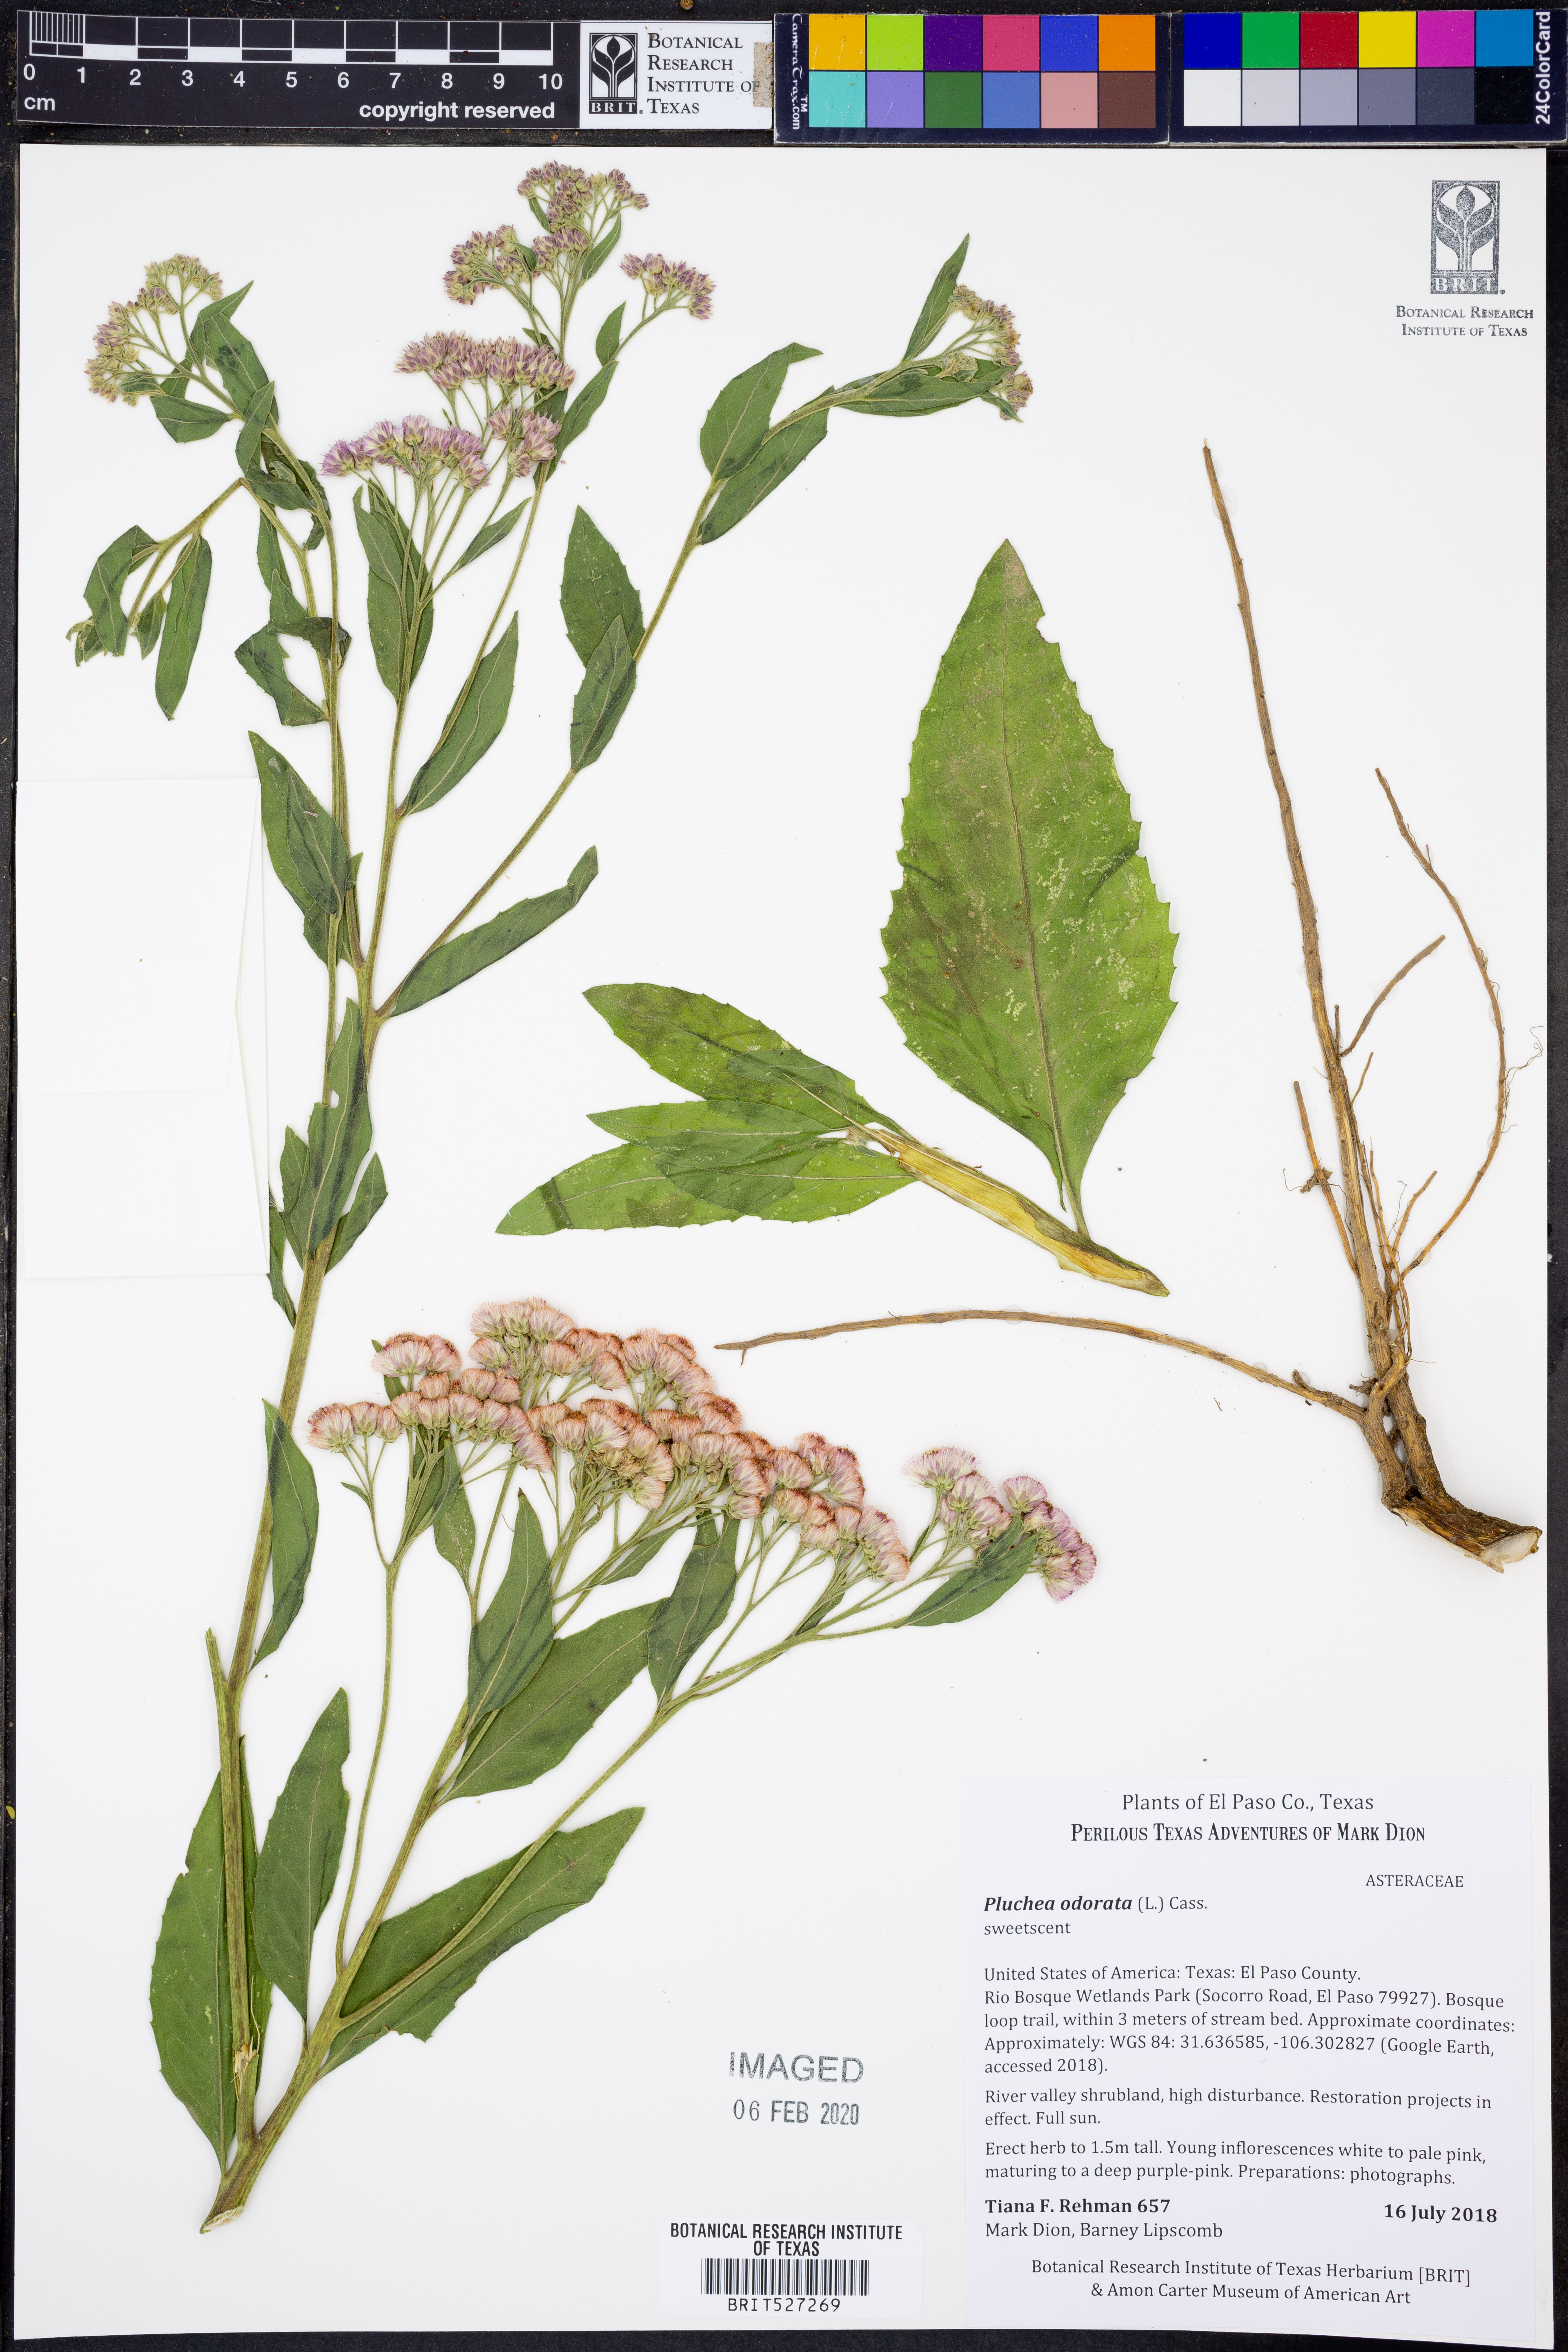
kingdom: Plantae
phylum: Tracheophyta
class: Magnoliopsida
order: Asterales
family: Asteraceae
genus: Pluchea
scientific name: Pluchea odorata
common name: Saltmarsh fleabane
